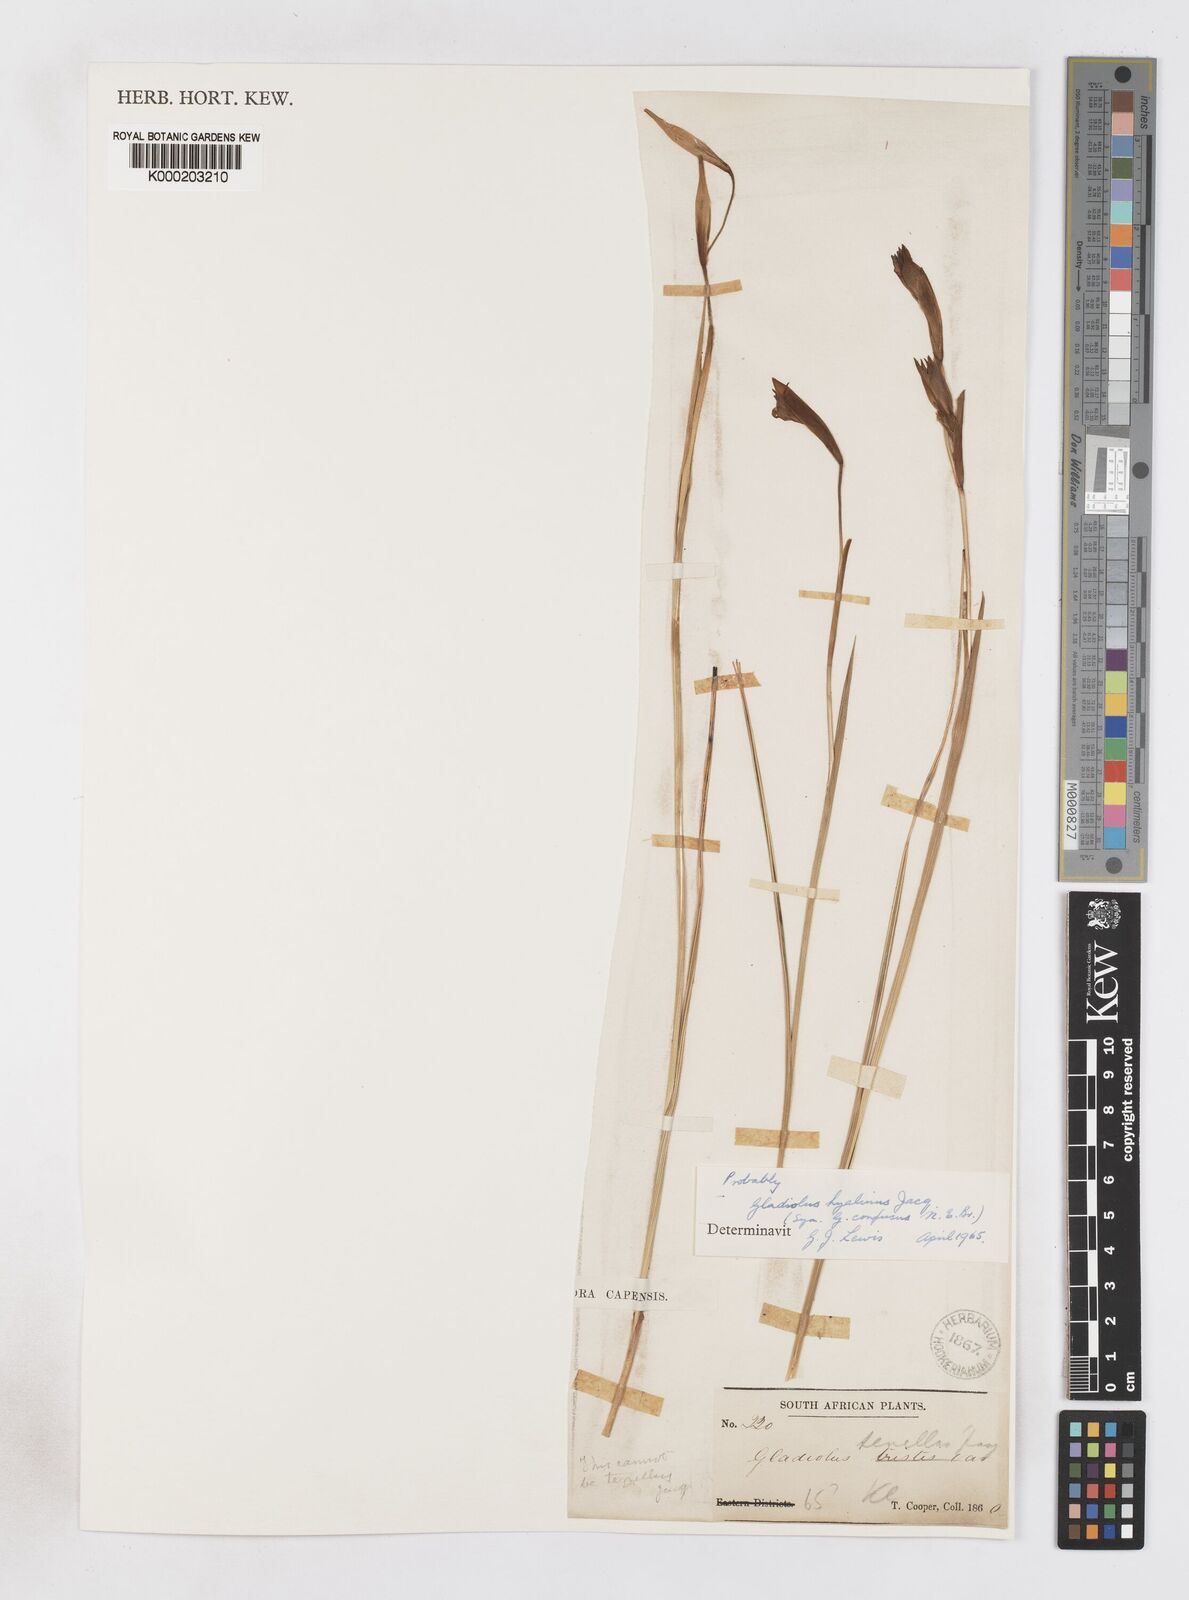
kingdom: Plantae
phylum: Tracheophyta
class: Liliopsida
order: Asparagales
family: Iridaceae
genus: Gladiolus
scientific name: Gladiolus hyalinus
